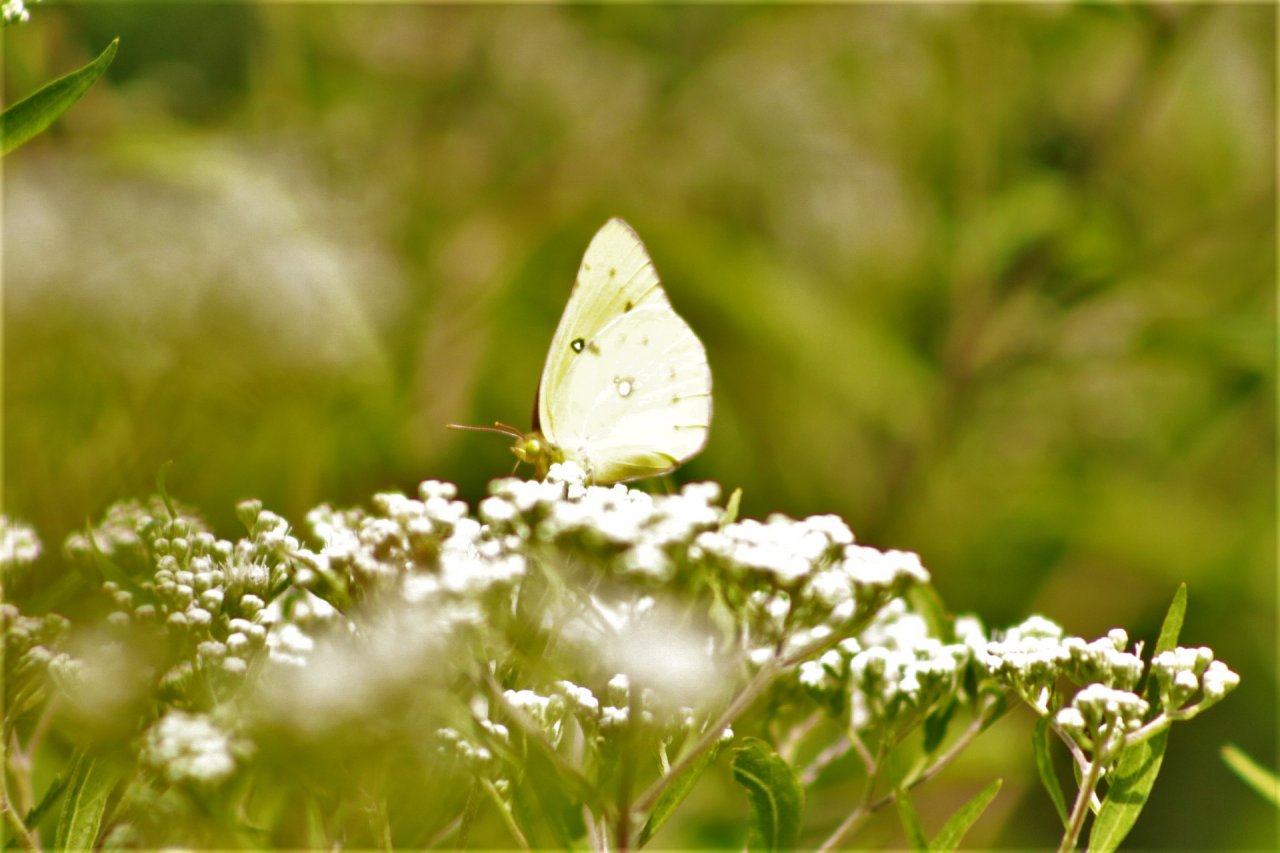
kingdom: Animalia
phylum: Arthropoda
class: Insecta
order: Lepidoptera
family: Pieridae
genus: Colias
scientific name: Colias philodice
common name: Clouded Sulphur
